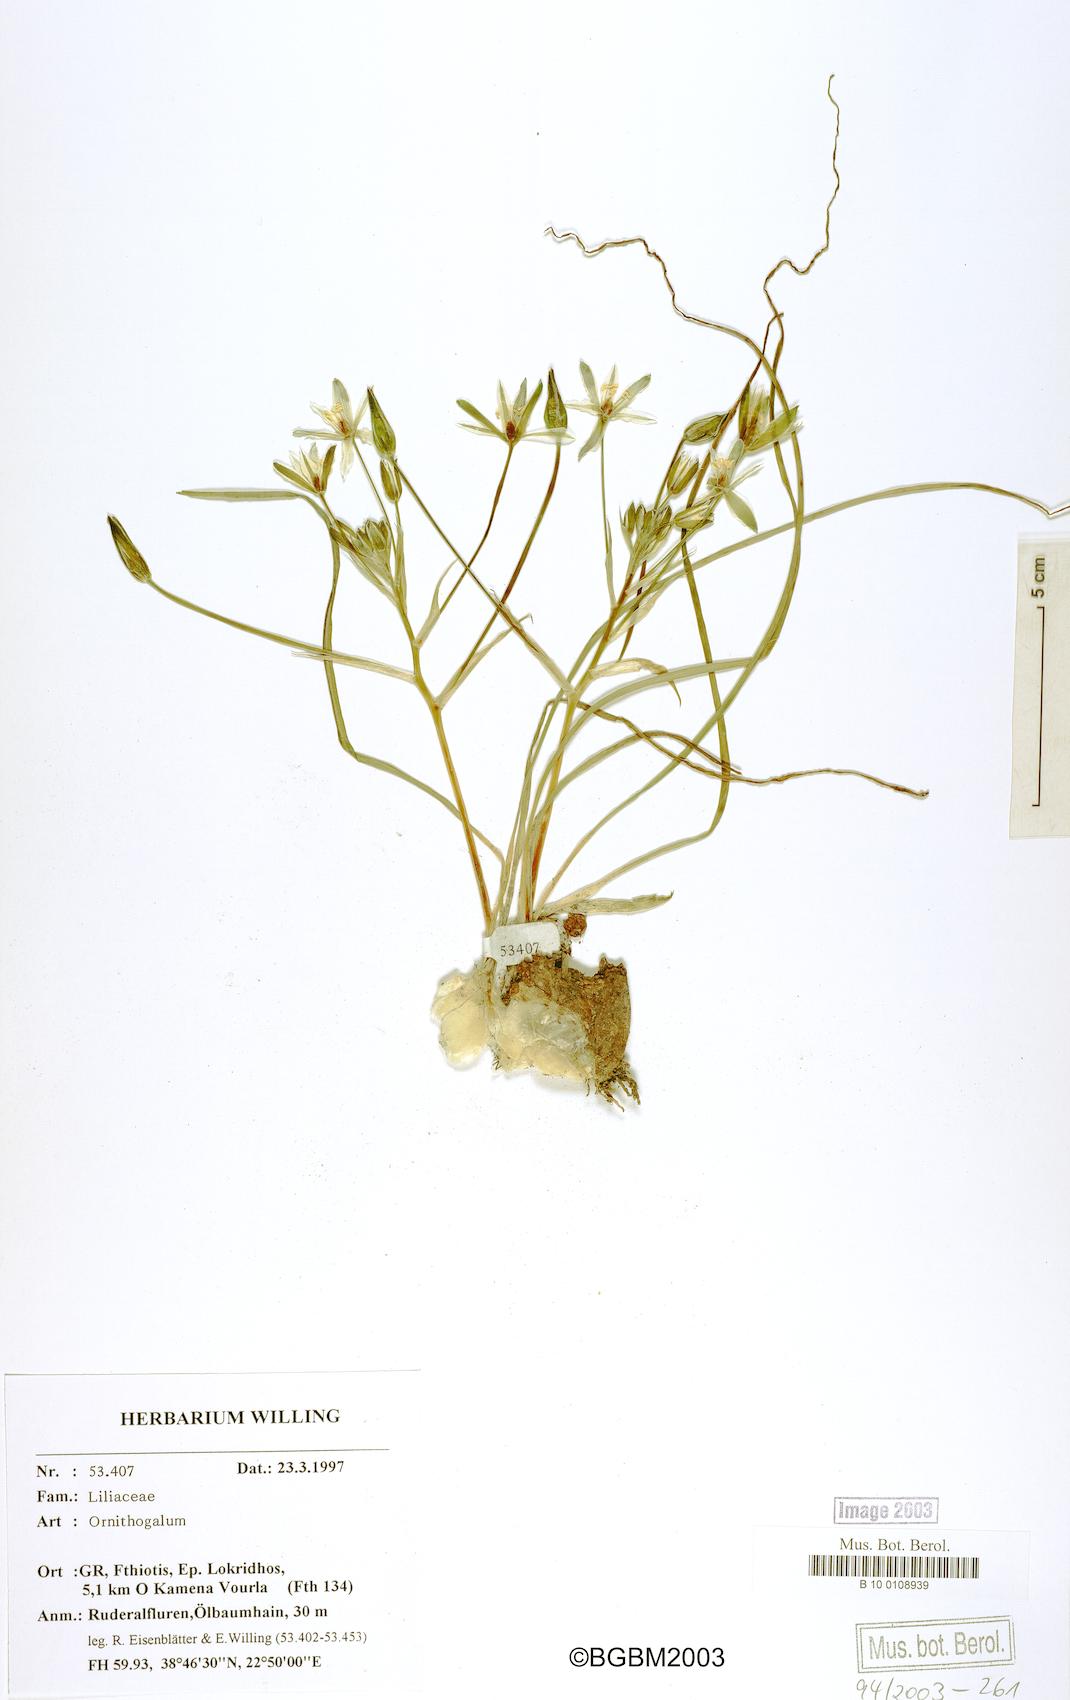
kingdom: Plantae
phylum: Tracheophyta
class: Liliopsida
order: Asparagales
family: Asparagaceae
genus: Ornithogalum
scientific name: Ornithogalum
